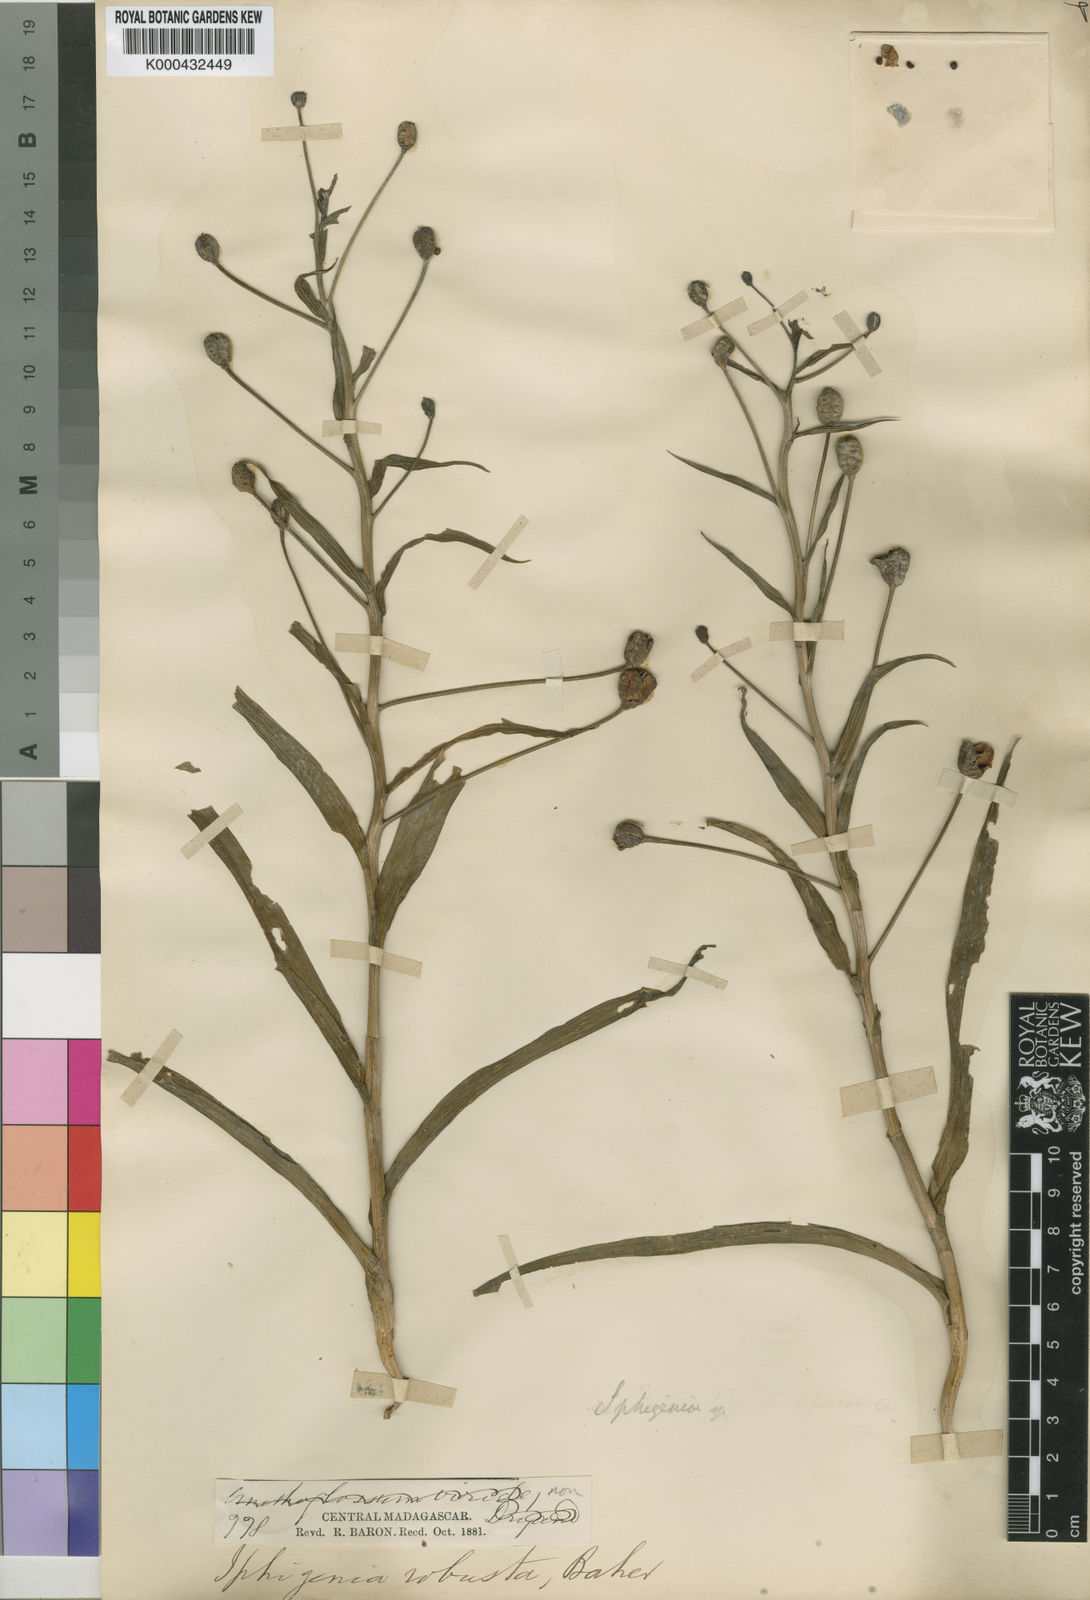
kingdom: Plantae
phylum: Tracheophyta
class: Liliopsida
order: Liliales
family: Colchicaceae
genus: Iphigenia
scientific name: Iphigenia robusta
